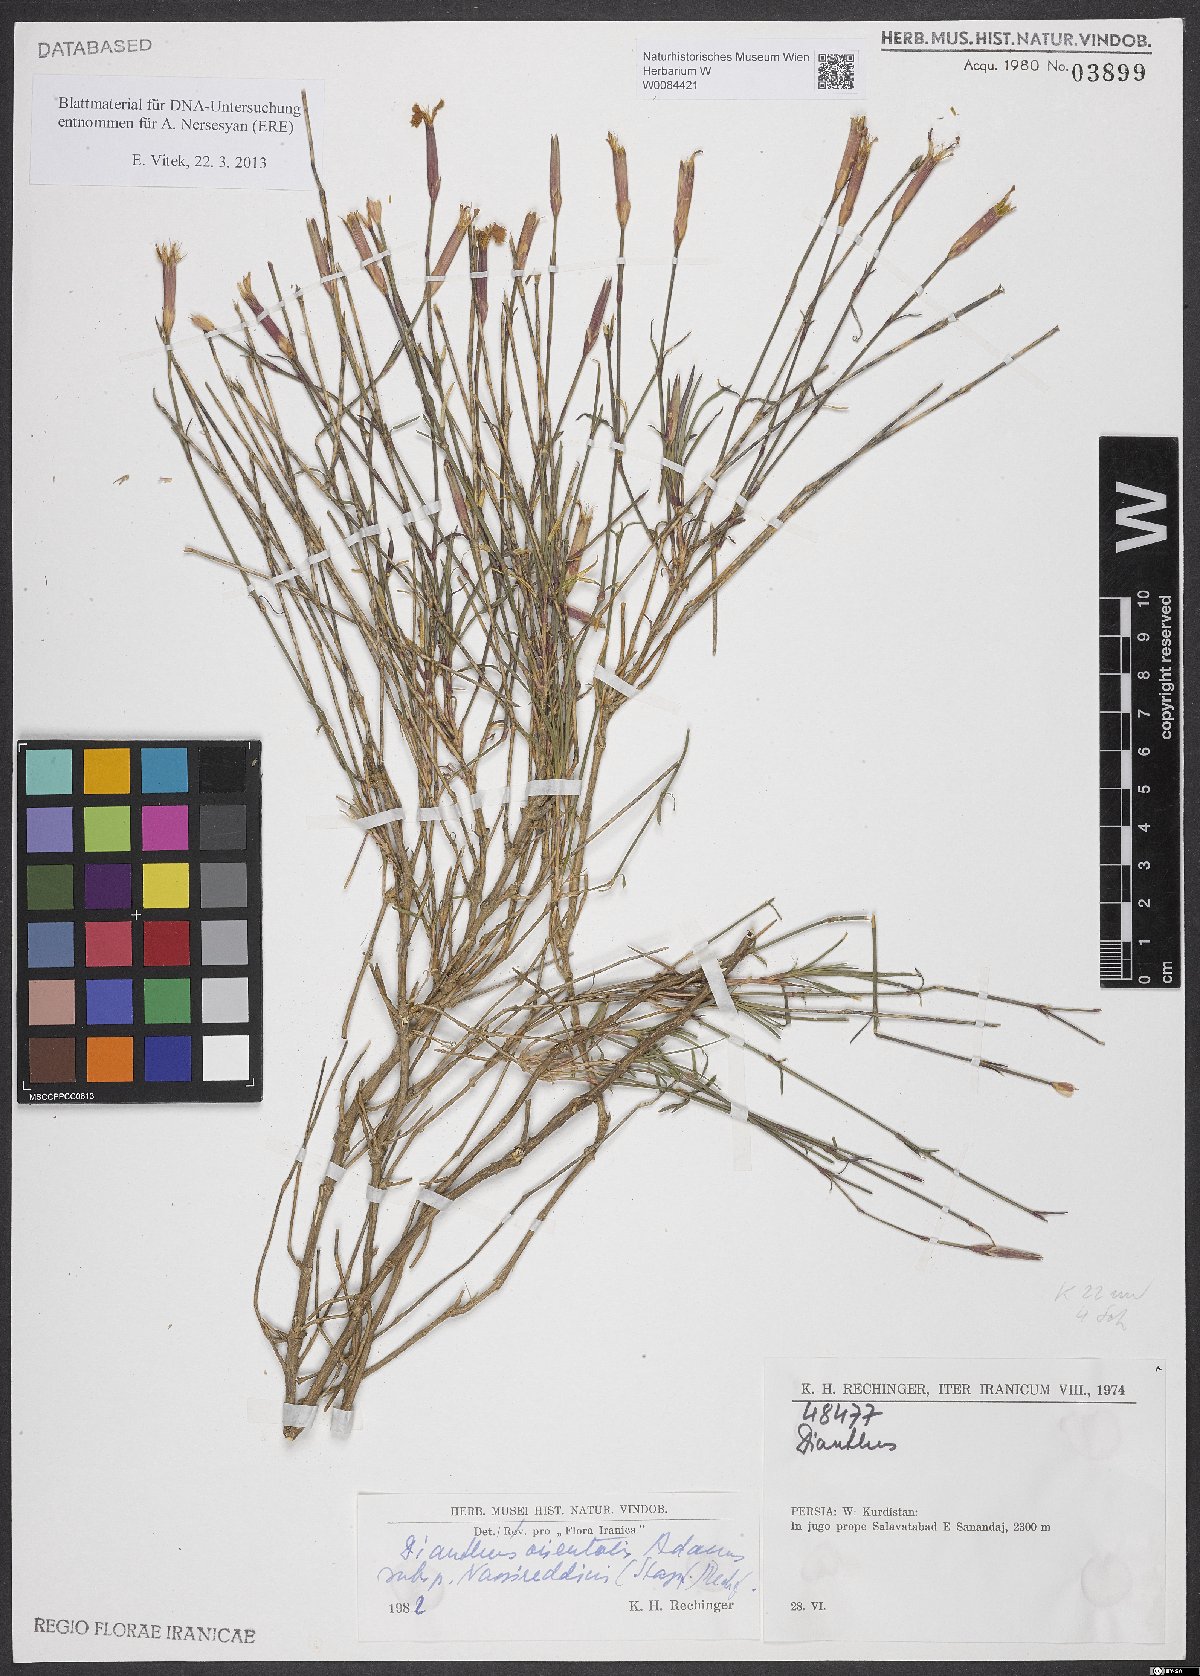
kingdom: Plantae
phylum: Tracheophyta
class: Magnoliopsida
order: Caryophyllales
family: Caryophyllaceae
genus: Dianthus
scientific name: Dianthus orientalis
